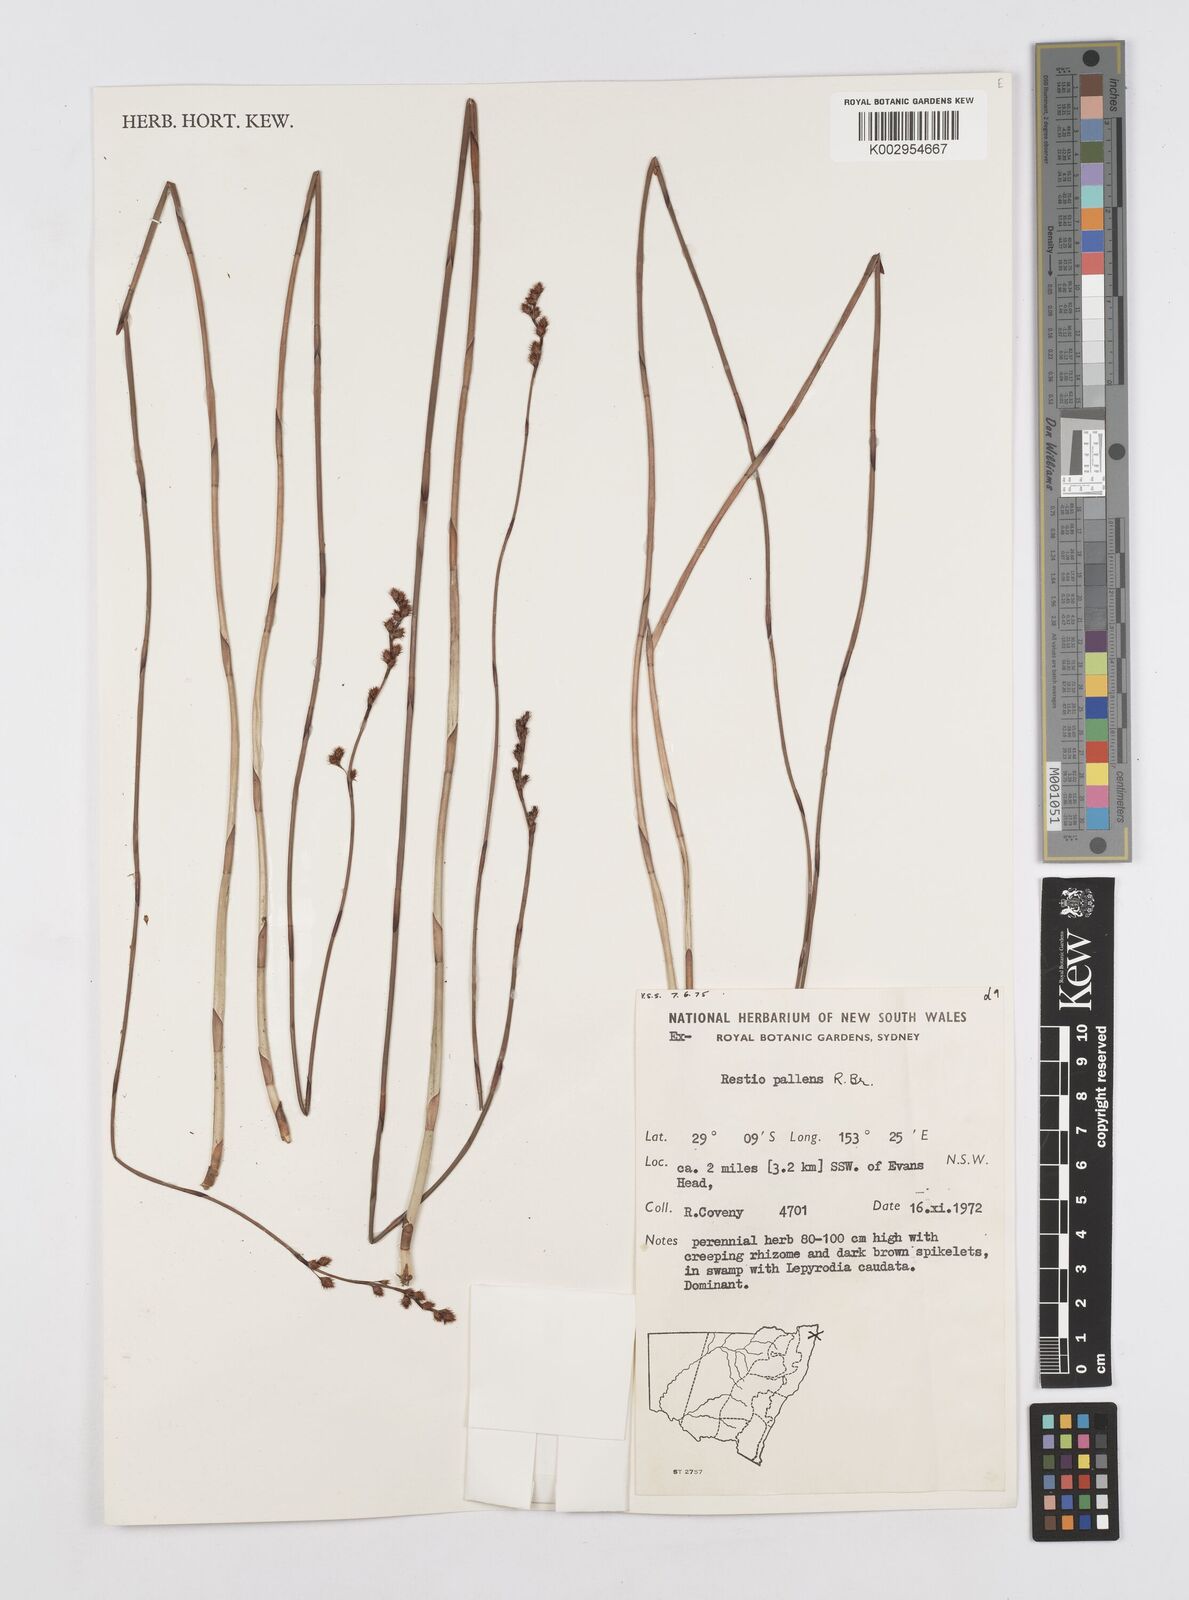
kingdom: Plantae
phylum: Tracheophyta
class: Liliopsida
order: Poales
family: Restionaceae
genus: Baloskion
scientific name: Baloskion pallens
